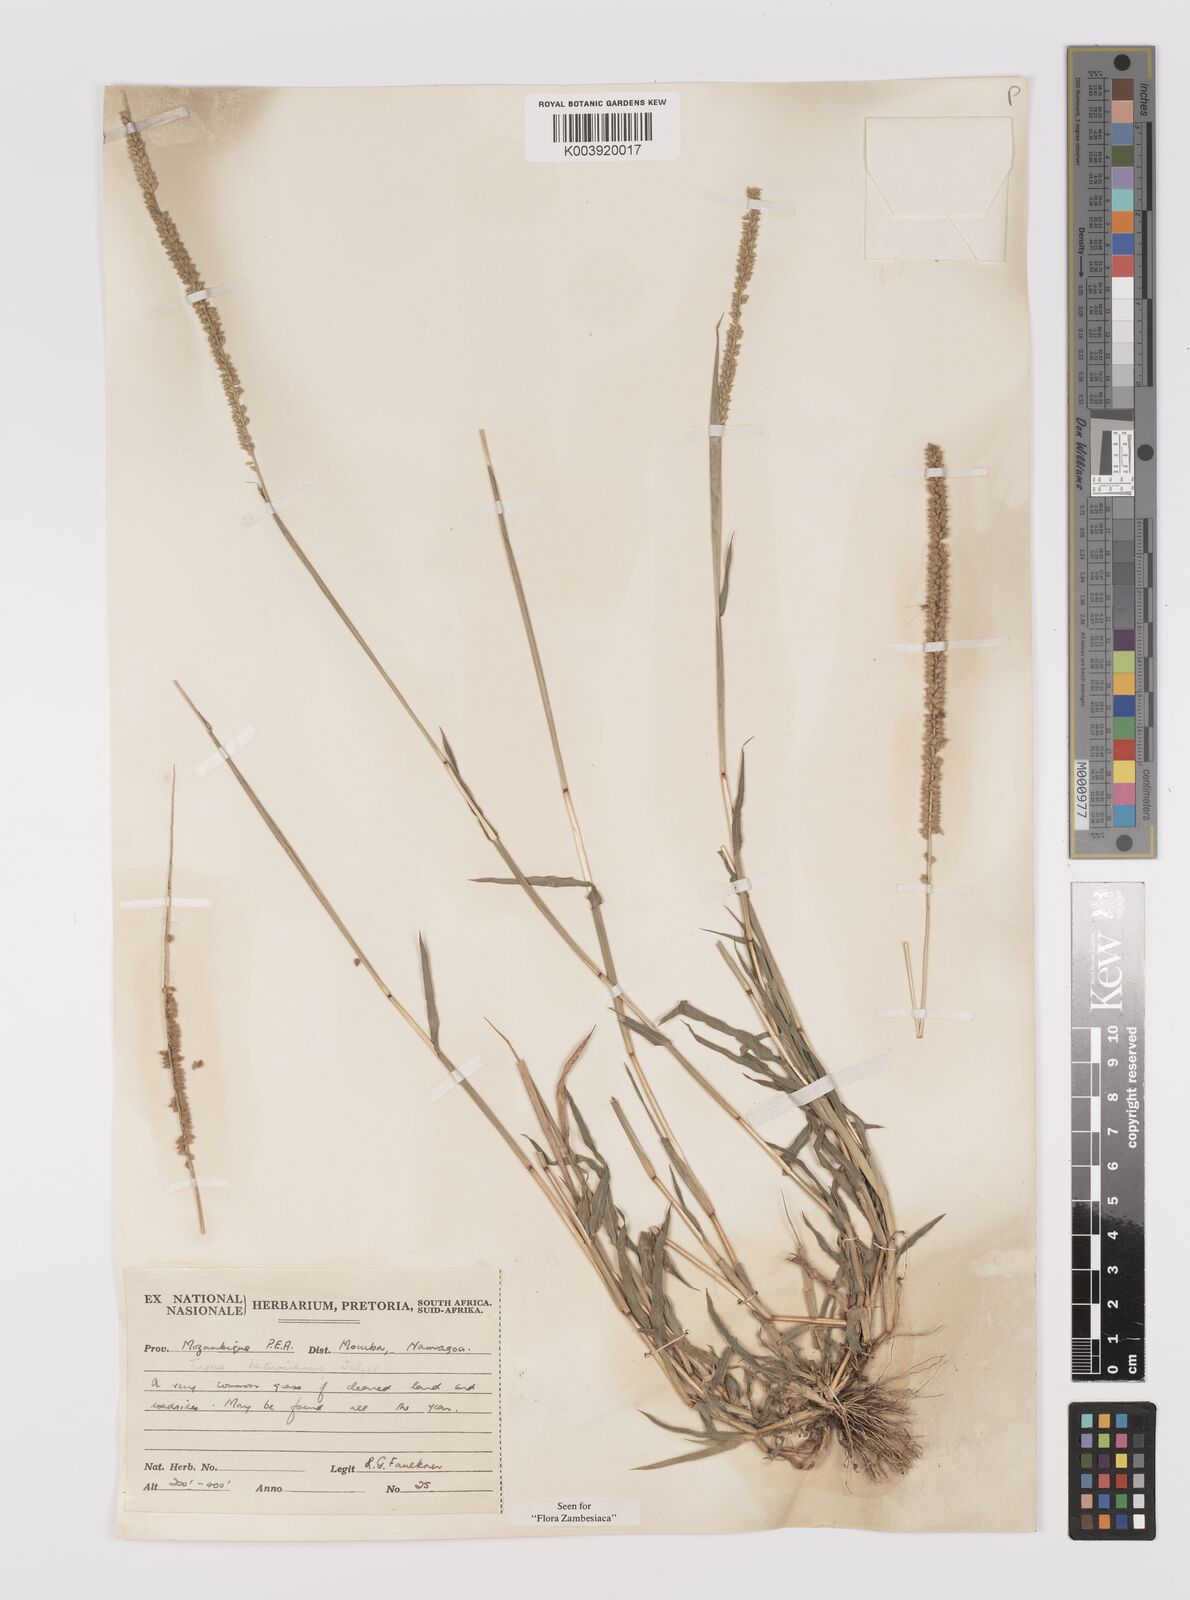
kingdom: Plantae
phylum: Tracheophyta
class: Liliopsida
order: Poales
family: Poaceae
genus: Tragus
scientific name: Tragus berteronianus
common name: African bur-grass
